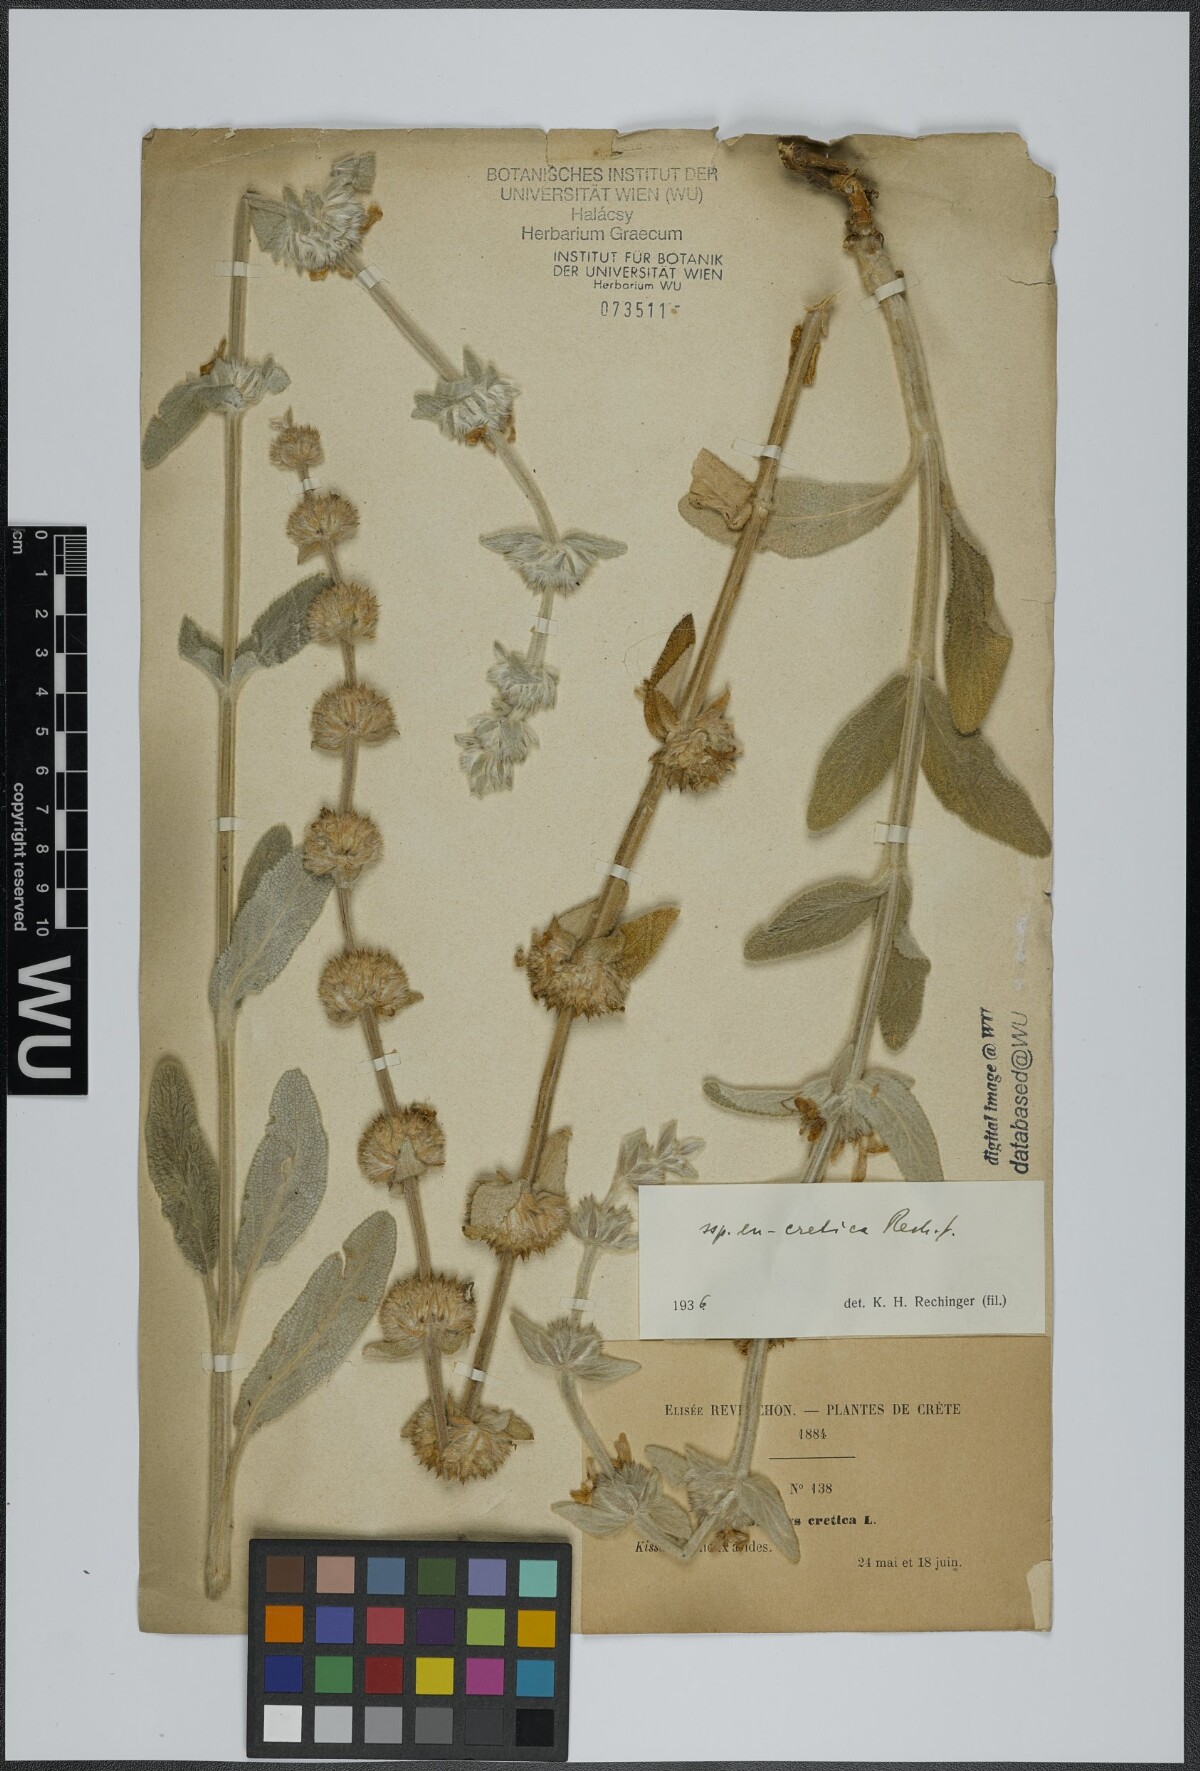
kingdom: Plantae
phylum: Tracheophyta
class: Magnoliopsida
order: Lamiales
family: Lamiaceae
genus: Stachys
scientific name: Stachys cretica
